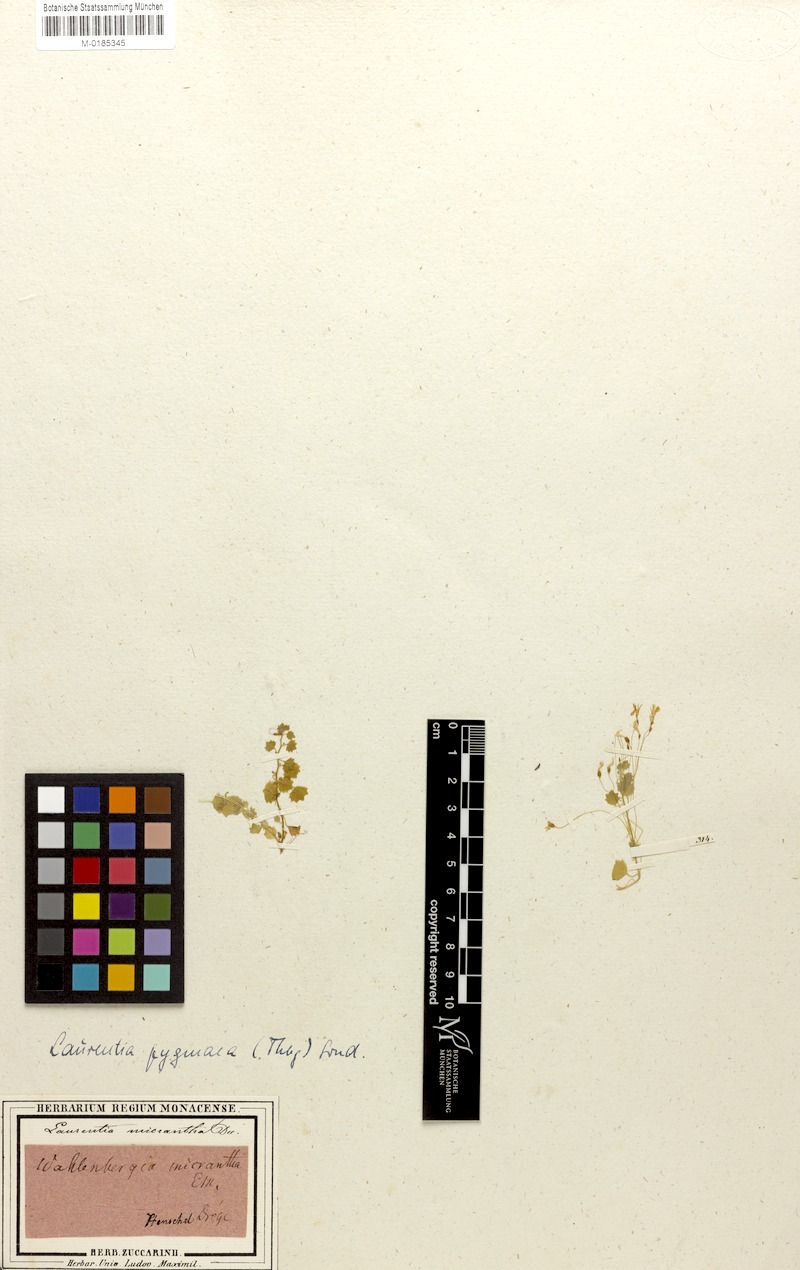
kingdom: Plantae
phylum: Tracheophyta
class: Magnoliopsida
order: Asterales
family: Campanulaceae
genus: Wimmerella
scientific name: Wimmerella pygmaea
